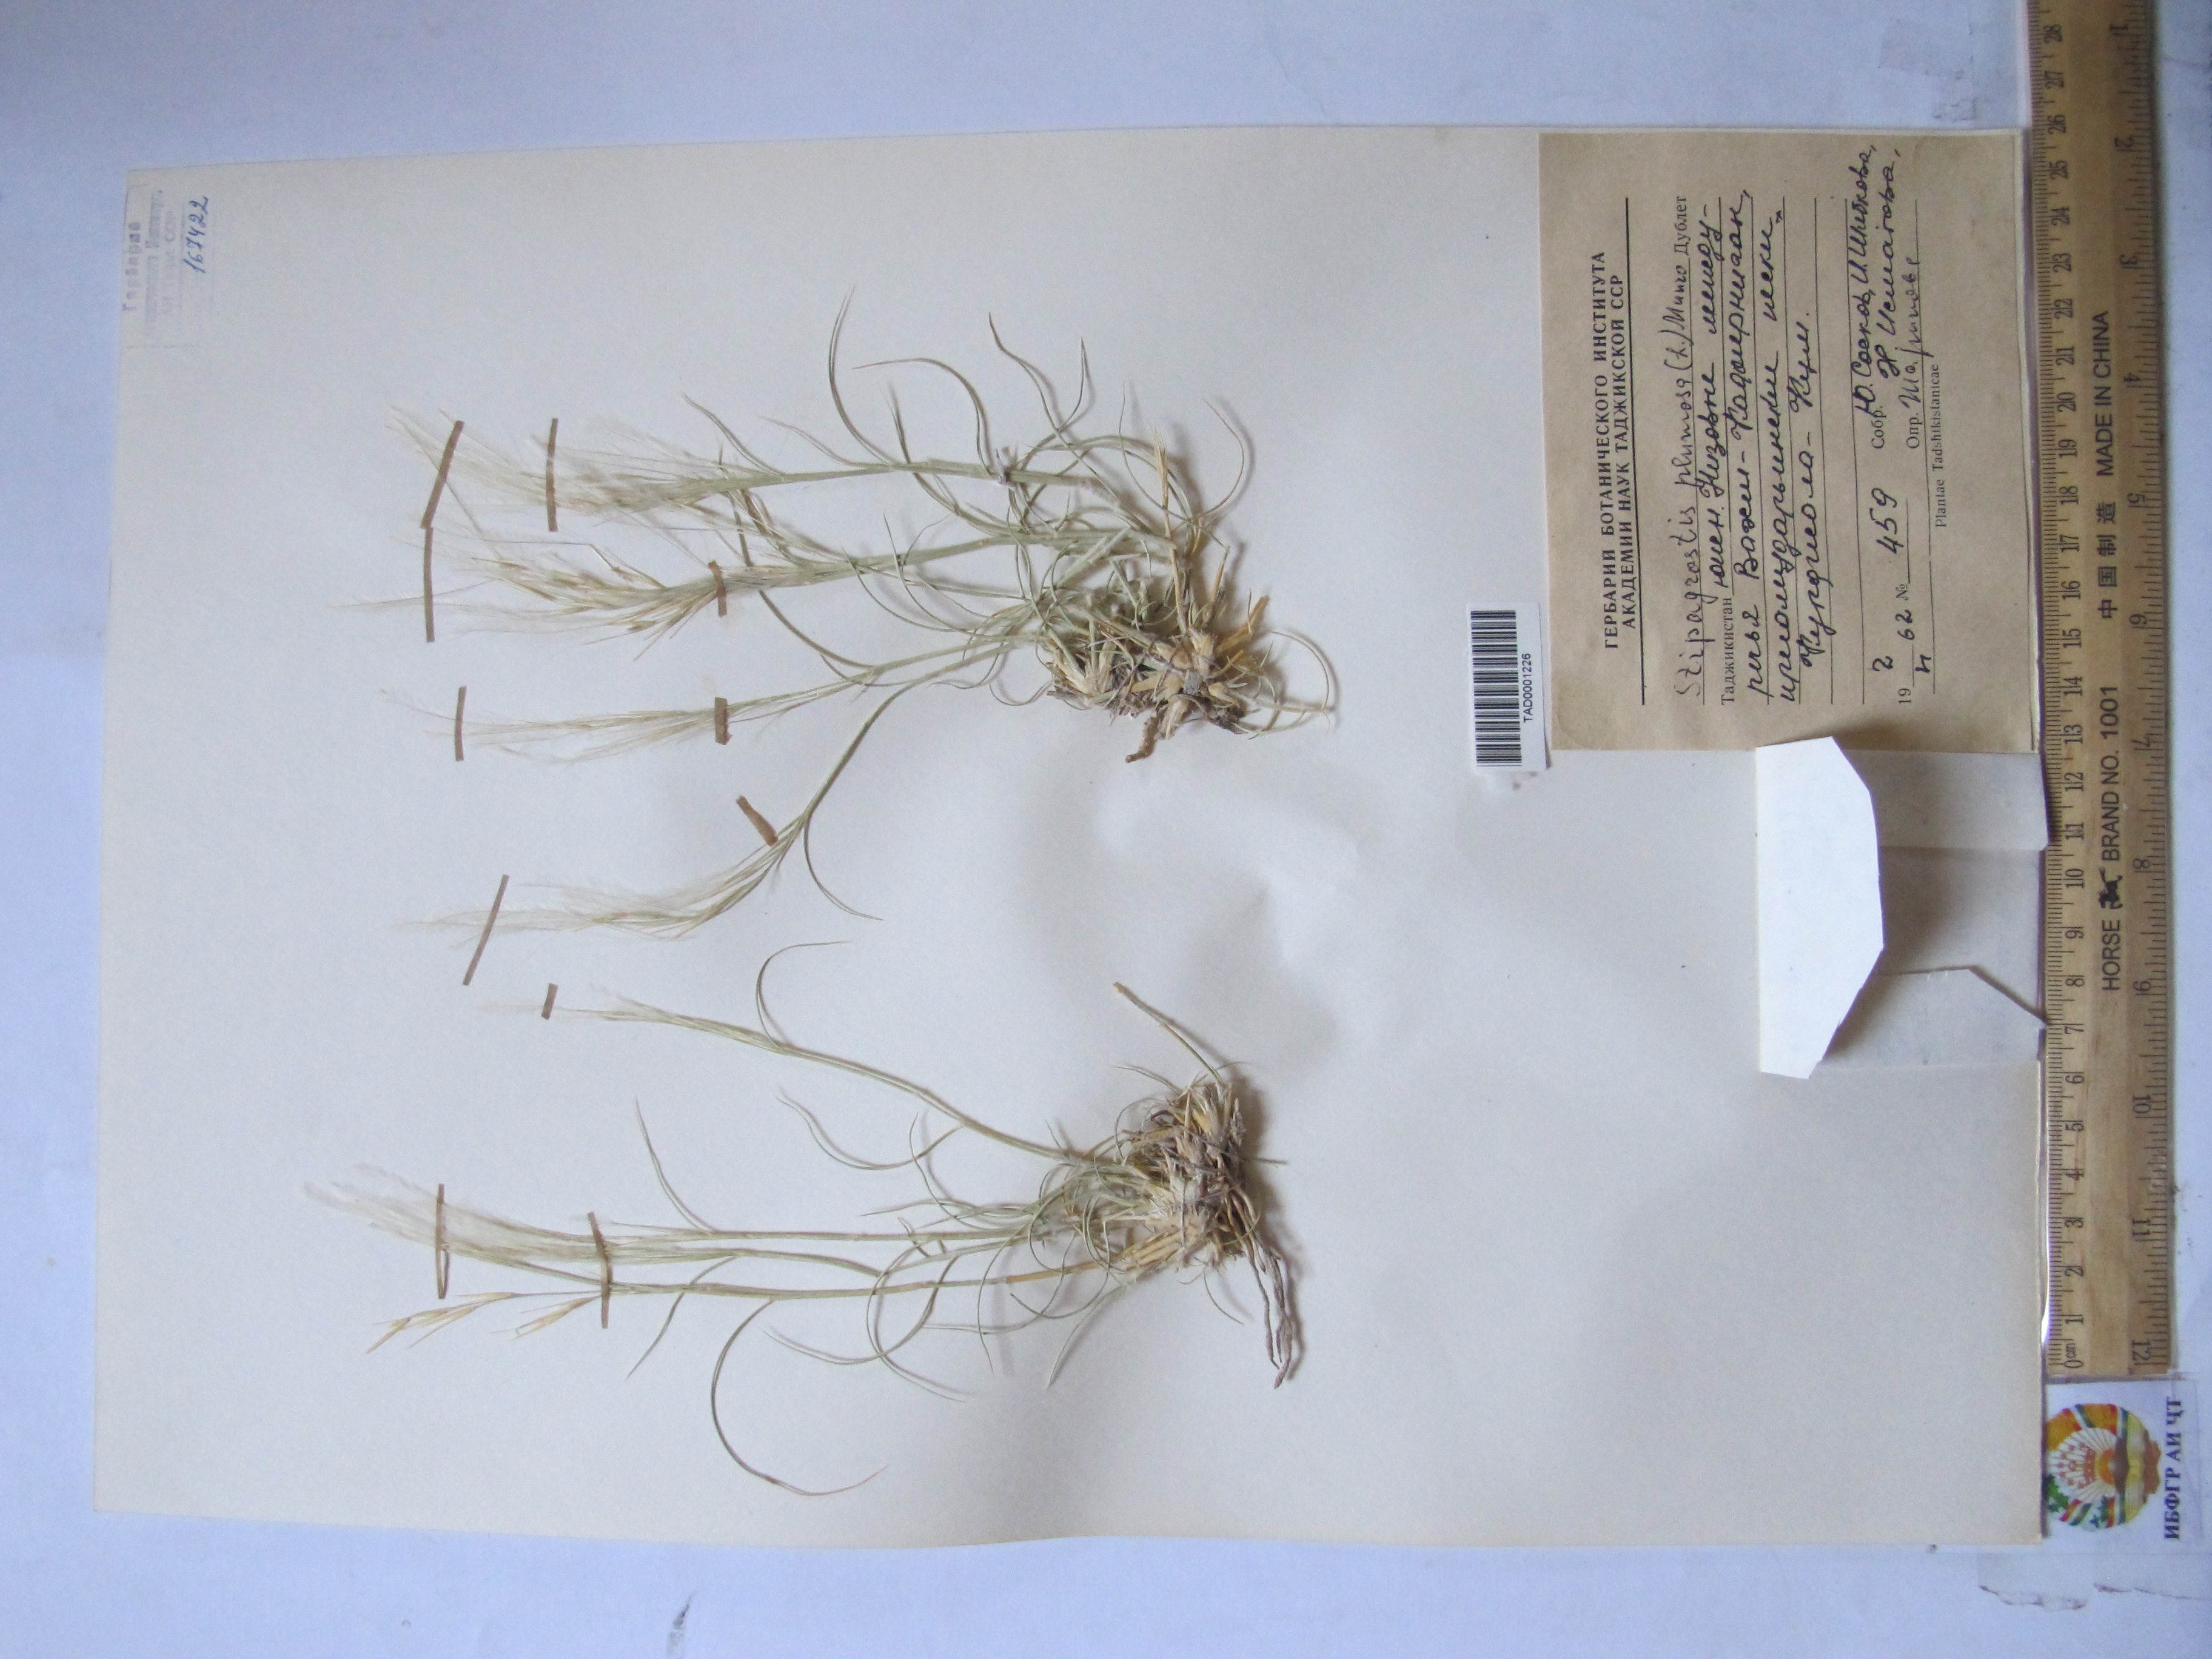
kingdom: Plantae
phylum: Tracheophyta
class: Liliopsida
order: Poales
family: Poaceae
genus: Stipagrostis
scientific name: Stipagrostis plumosa
